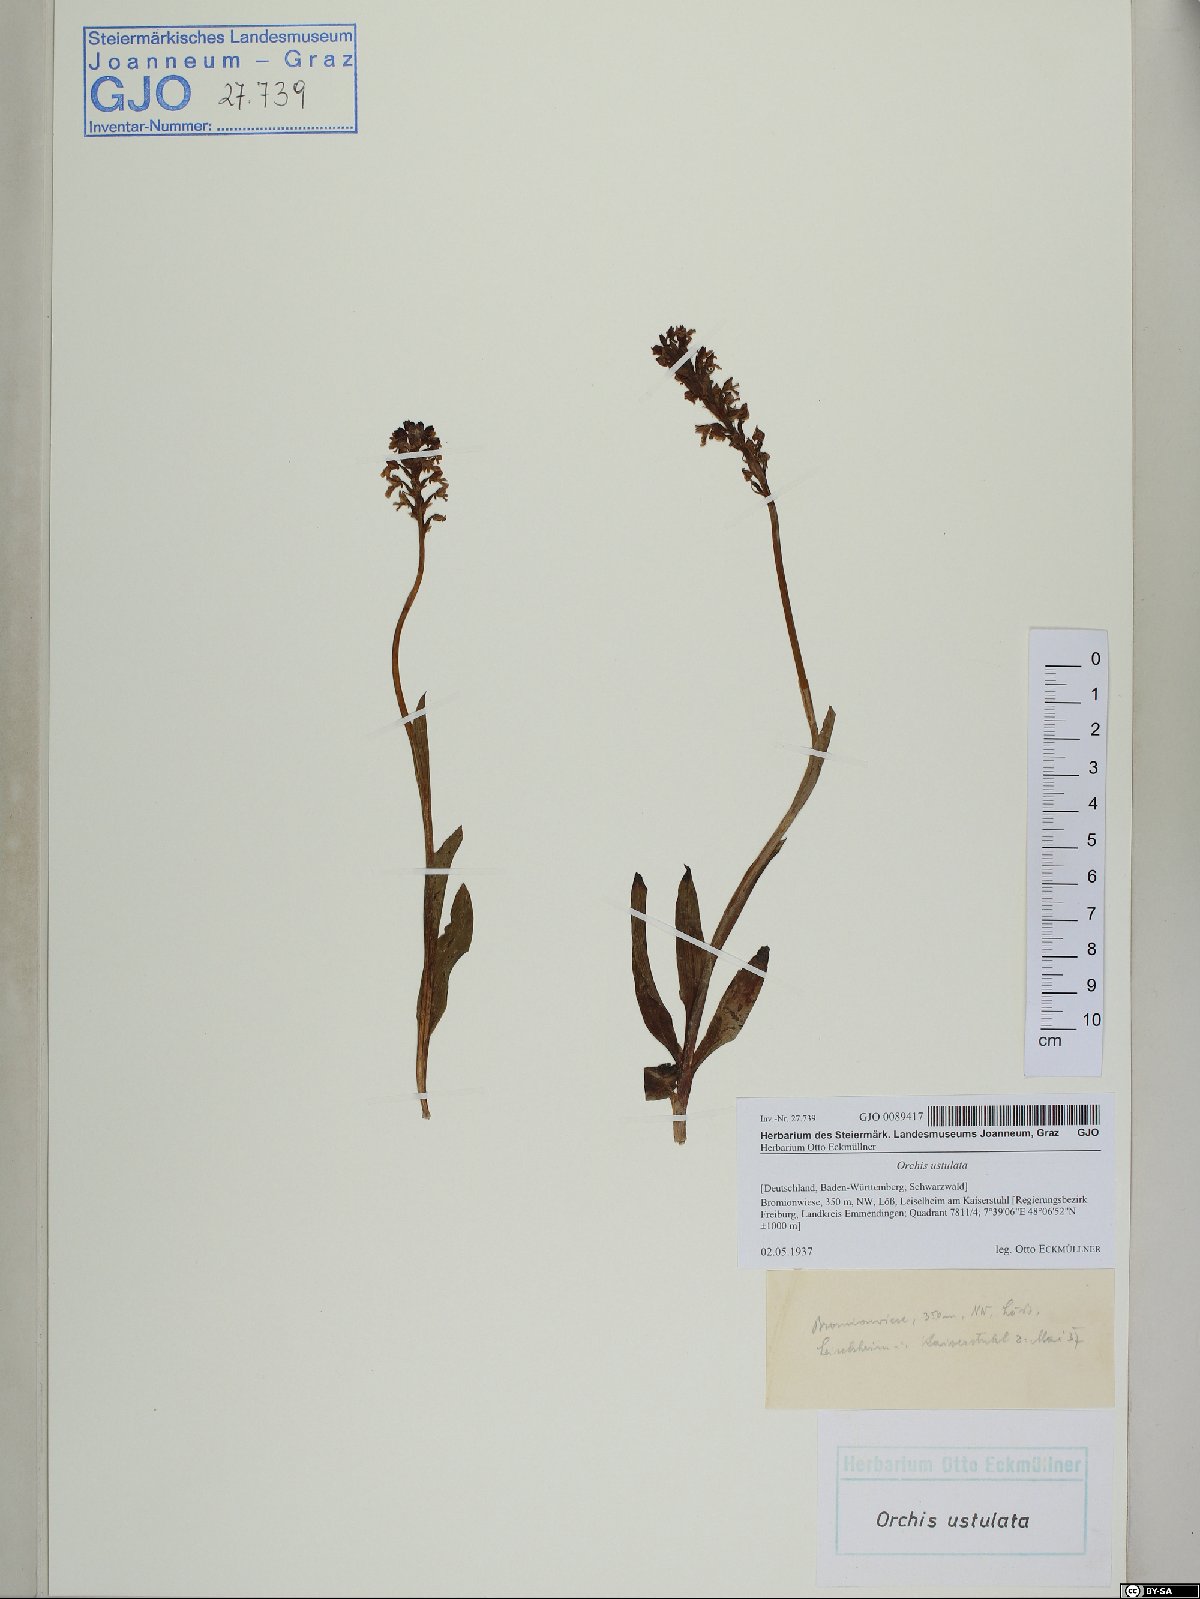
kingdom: Plantae
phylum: Tracheophyta
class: Liliopsida
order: Asparagales
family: Orchidaceae
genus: Neotinea
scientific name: Neotinea ustulata
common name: Burnt orchid
